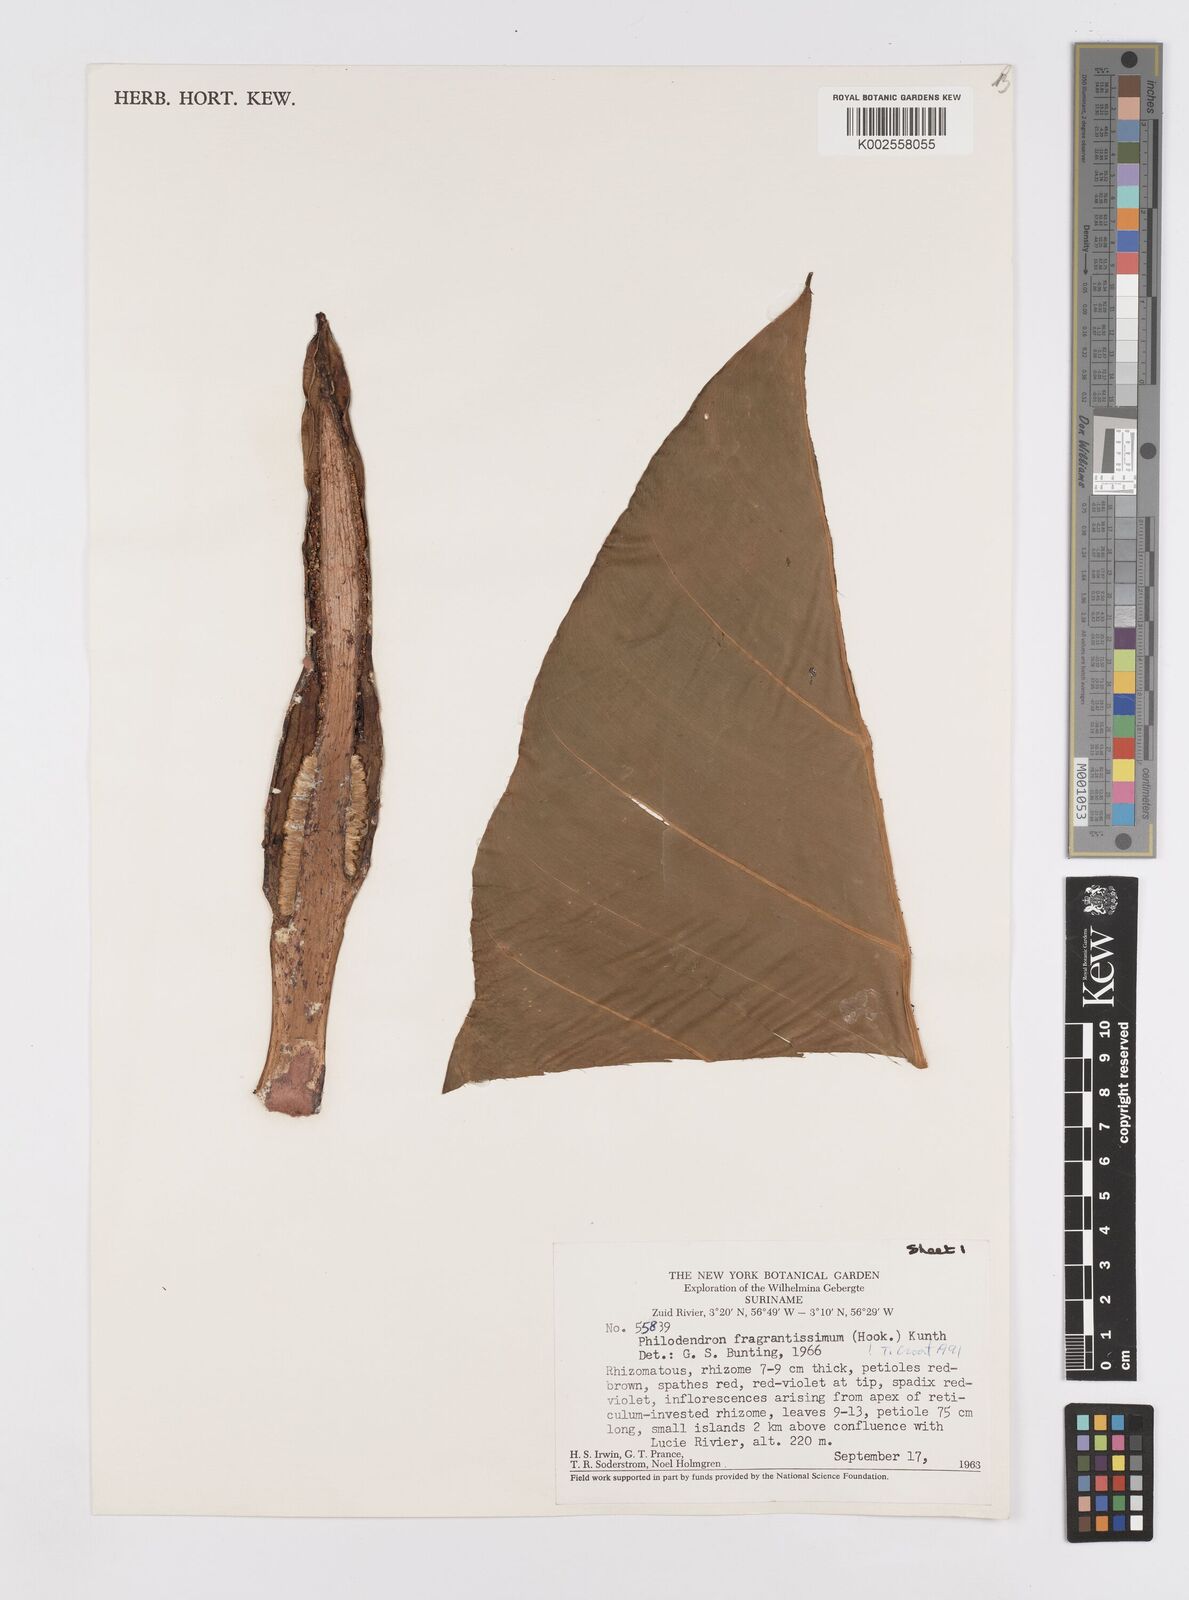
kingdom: Plantae
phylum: Tracheophyta
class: Liliopsida
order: Alismatales
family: Araceae
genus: Philodendron
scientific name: Philodendron fragrantissimum
